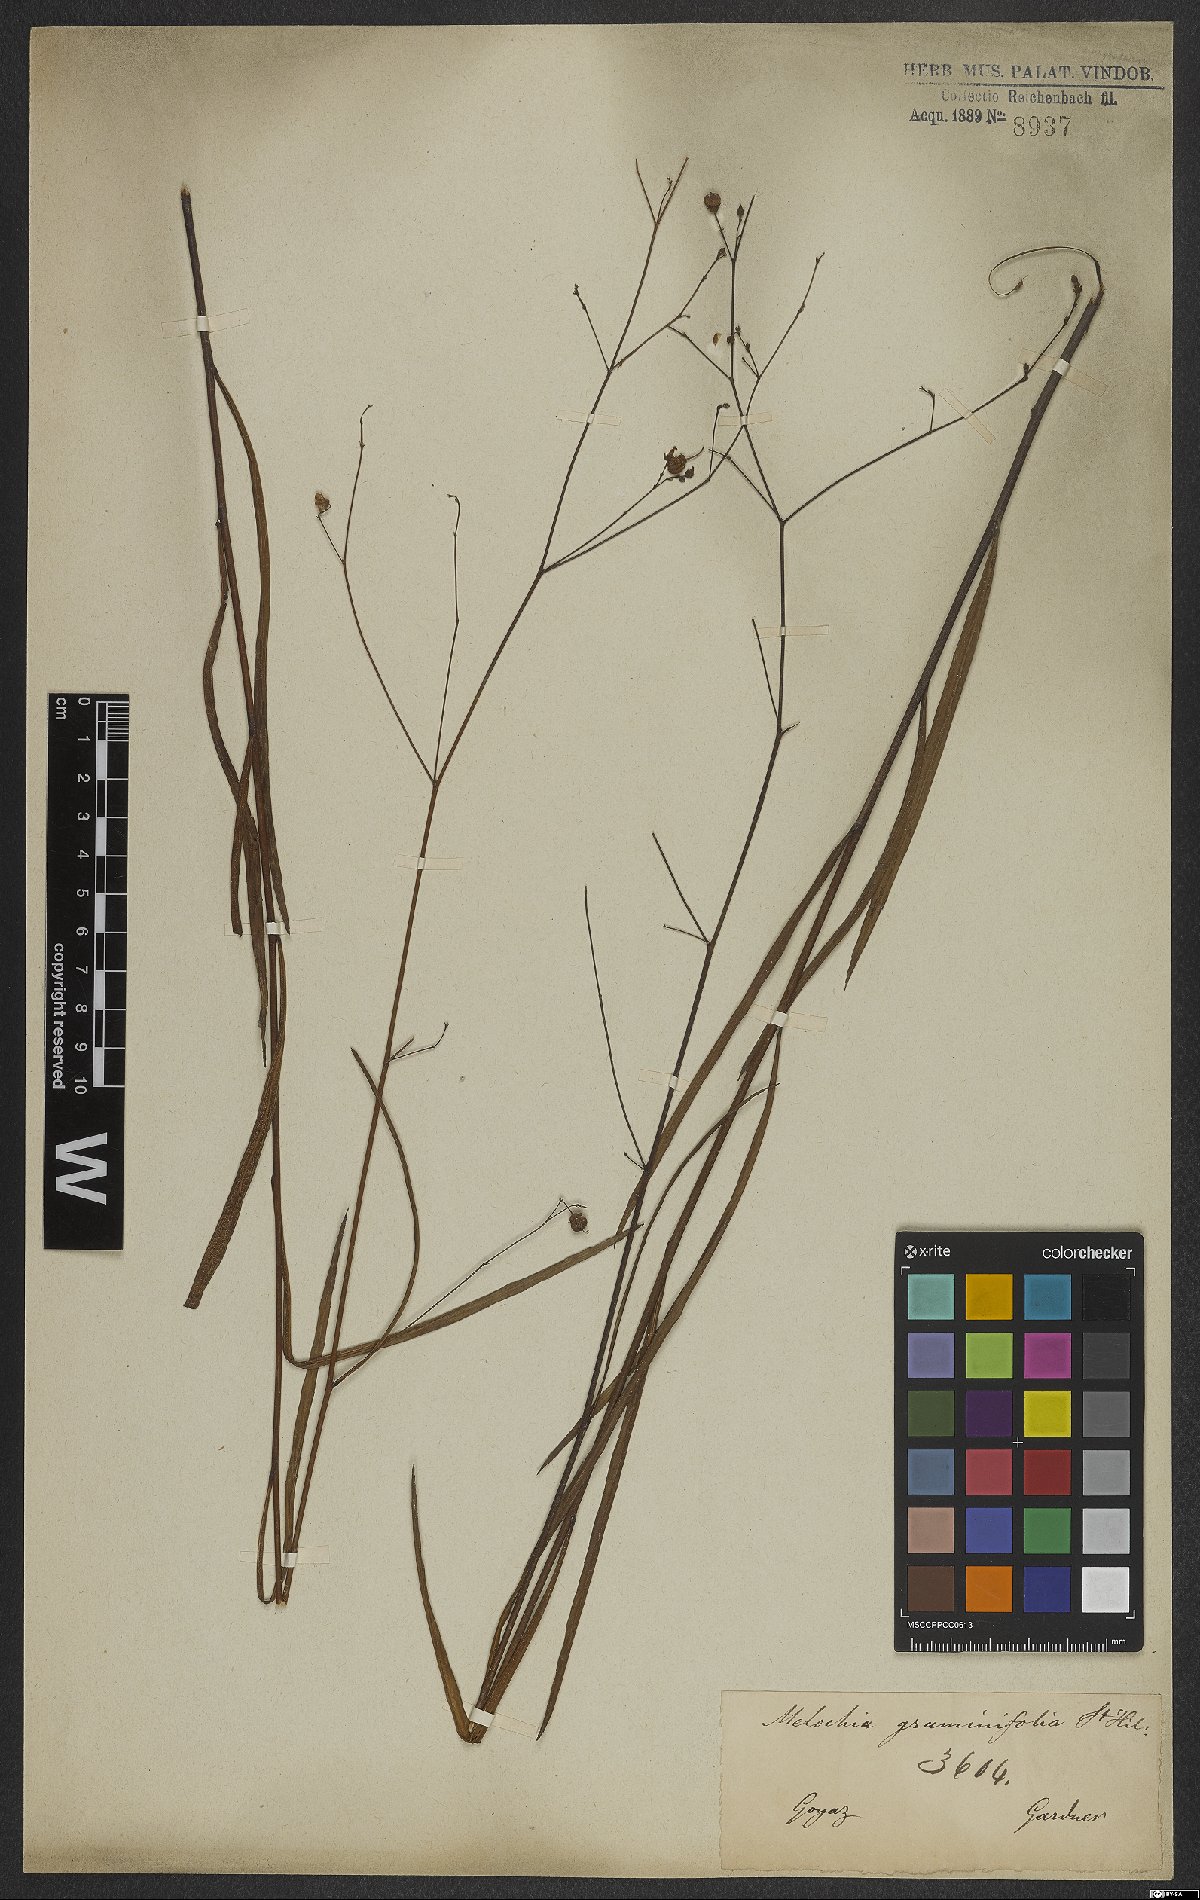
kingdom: Plantae
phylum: Tracheophyta
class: Magnoliopsida
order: Malvales
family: Malvaceae
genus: Melochia
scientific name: Melochia graminifolia
